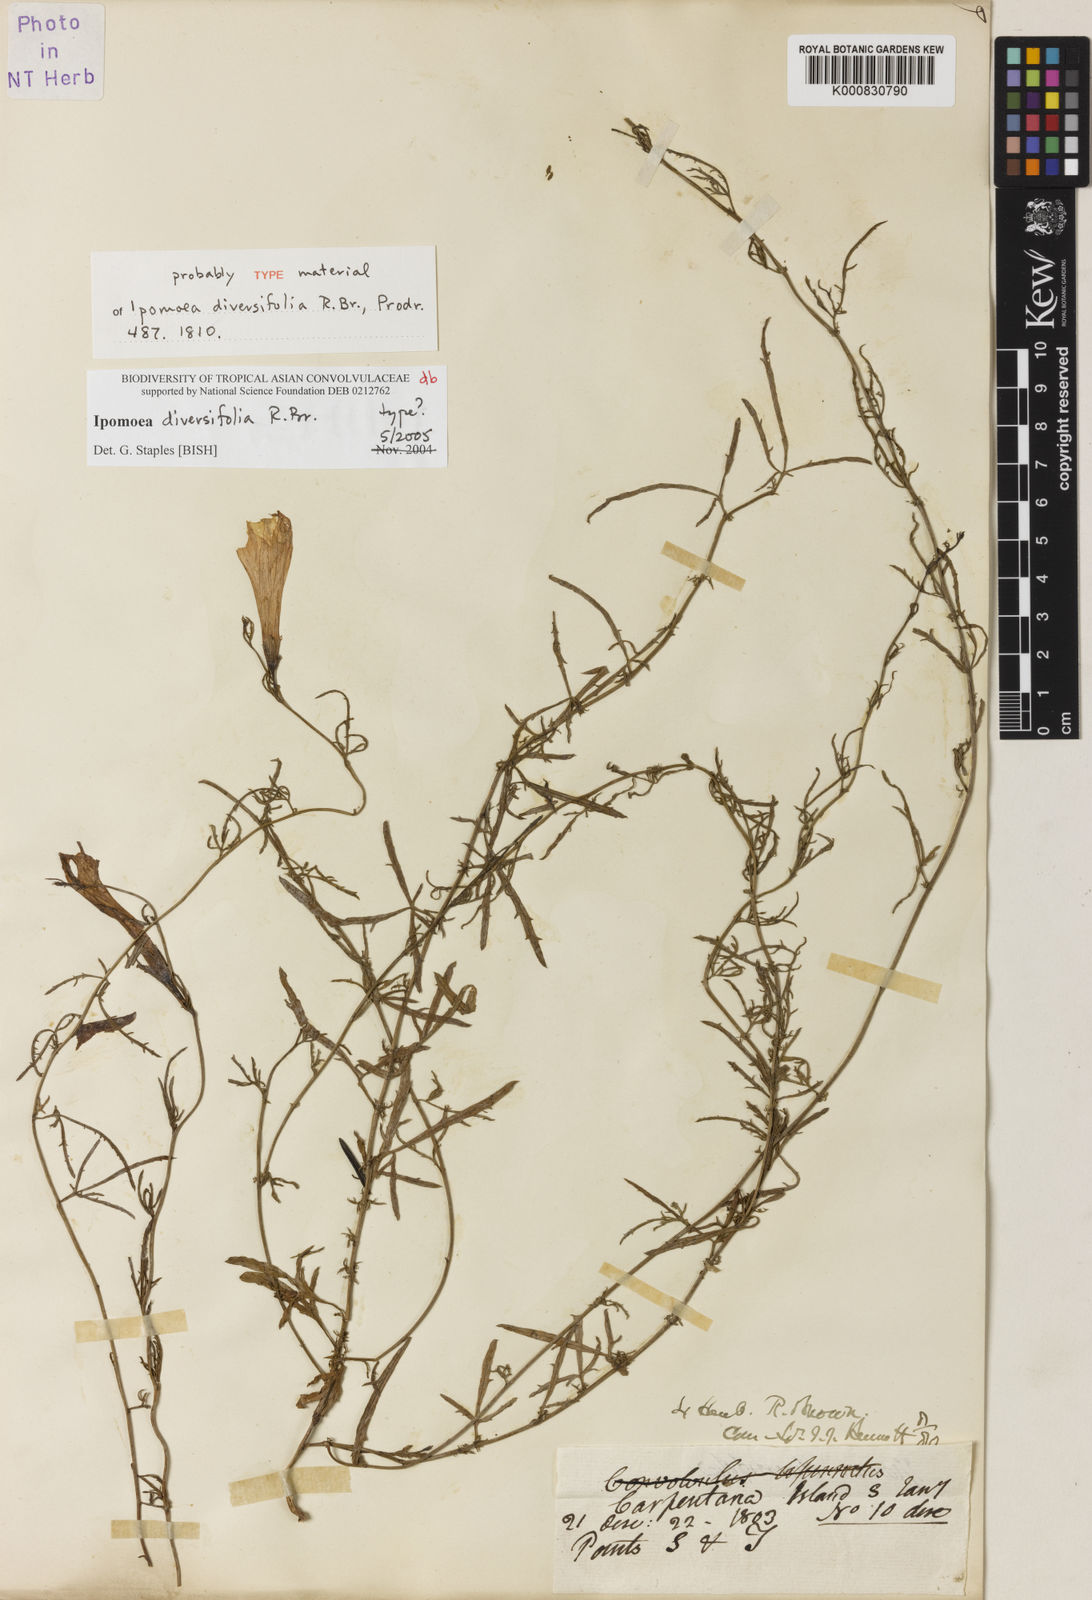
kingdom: Plantae
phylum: Tracheophyta
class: Magnoliopsida
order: Solanales
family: Convolvulaceae
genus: Ipomoea
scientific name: Ipomoea diversifolia
